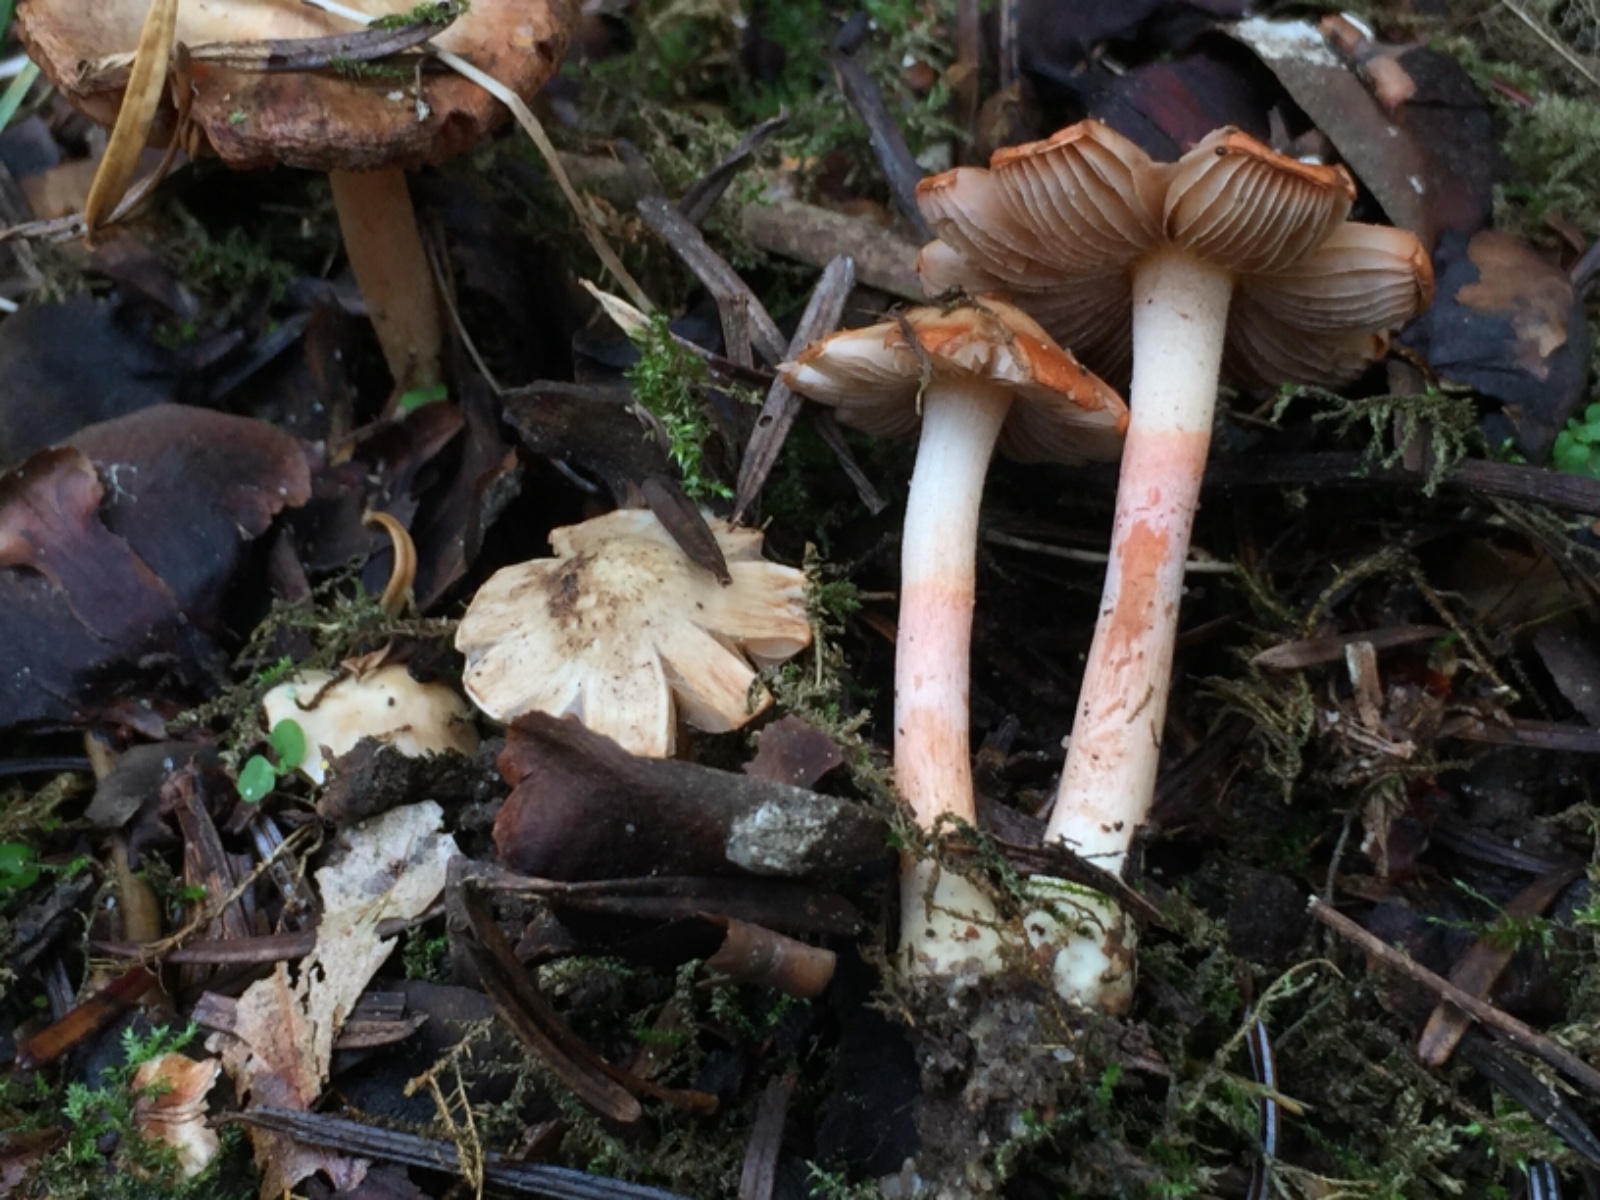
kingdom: Fungi
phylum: Basidiomycota
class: Agaricomycetes
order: Agaricales
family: Inocybaceae
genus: Inocybe
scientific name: Inocybe
